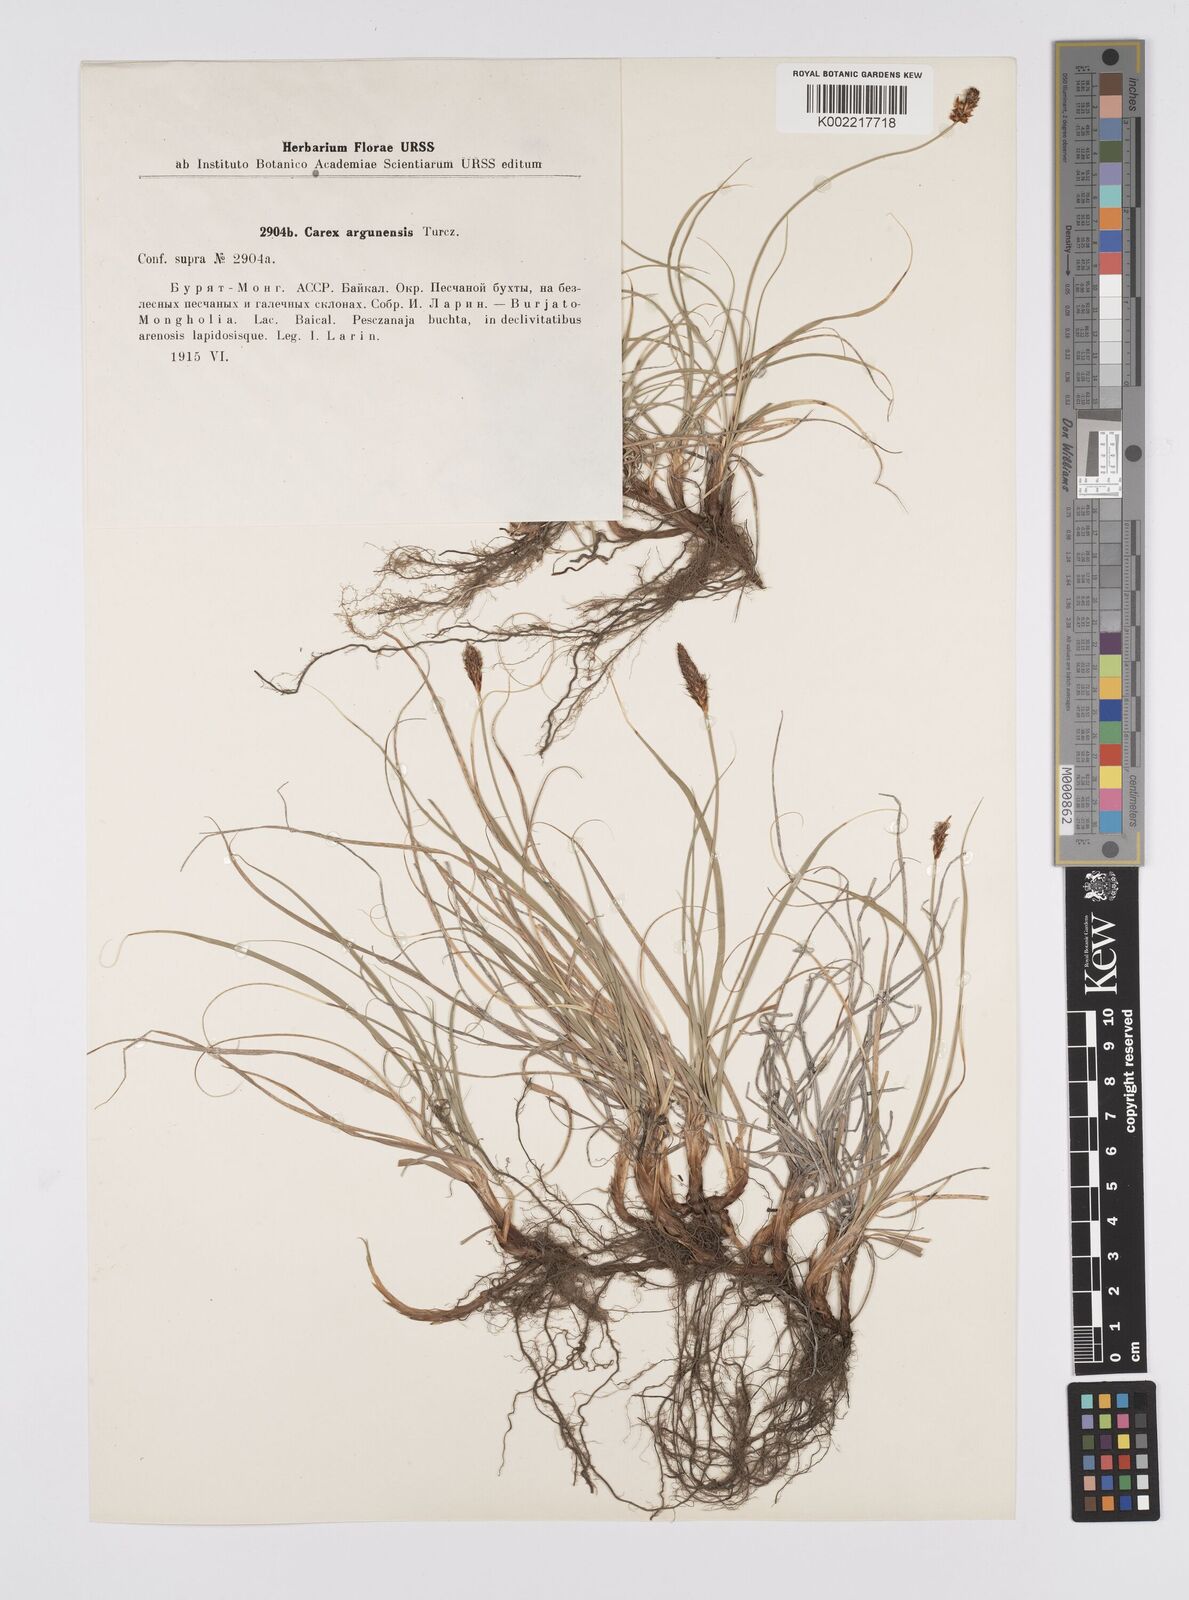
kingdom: Plantae
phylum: Tracheophyta
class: Liliopsida
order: Poales
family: Cyperaceae
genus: Carex
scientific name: Carex argunensis
